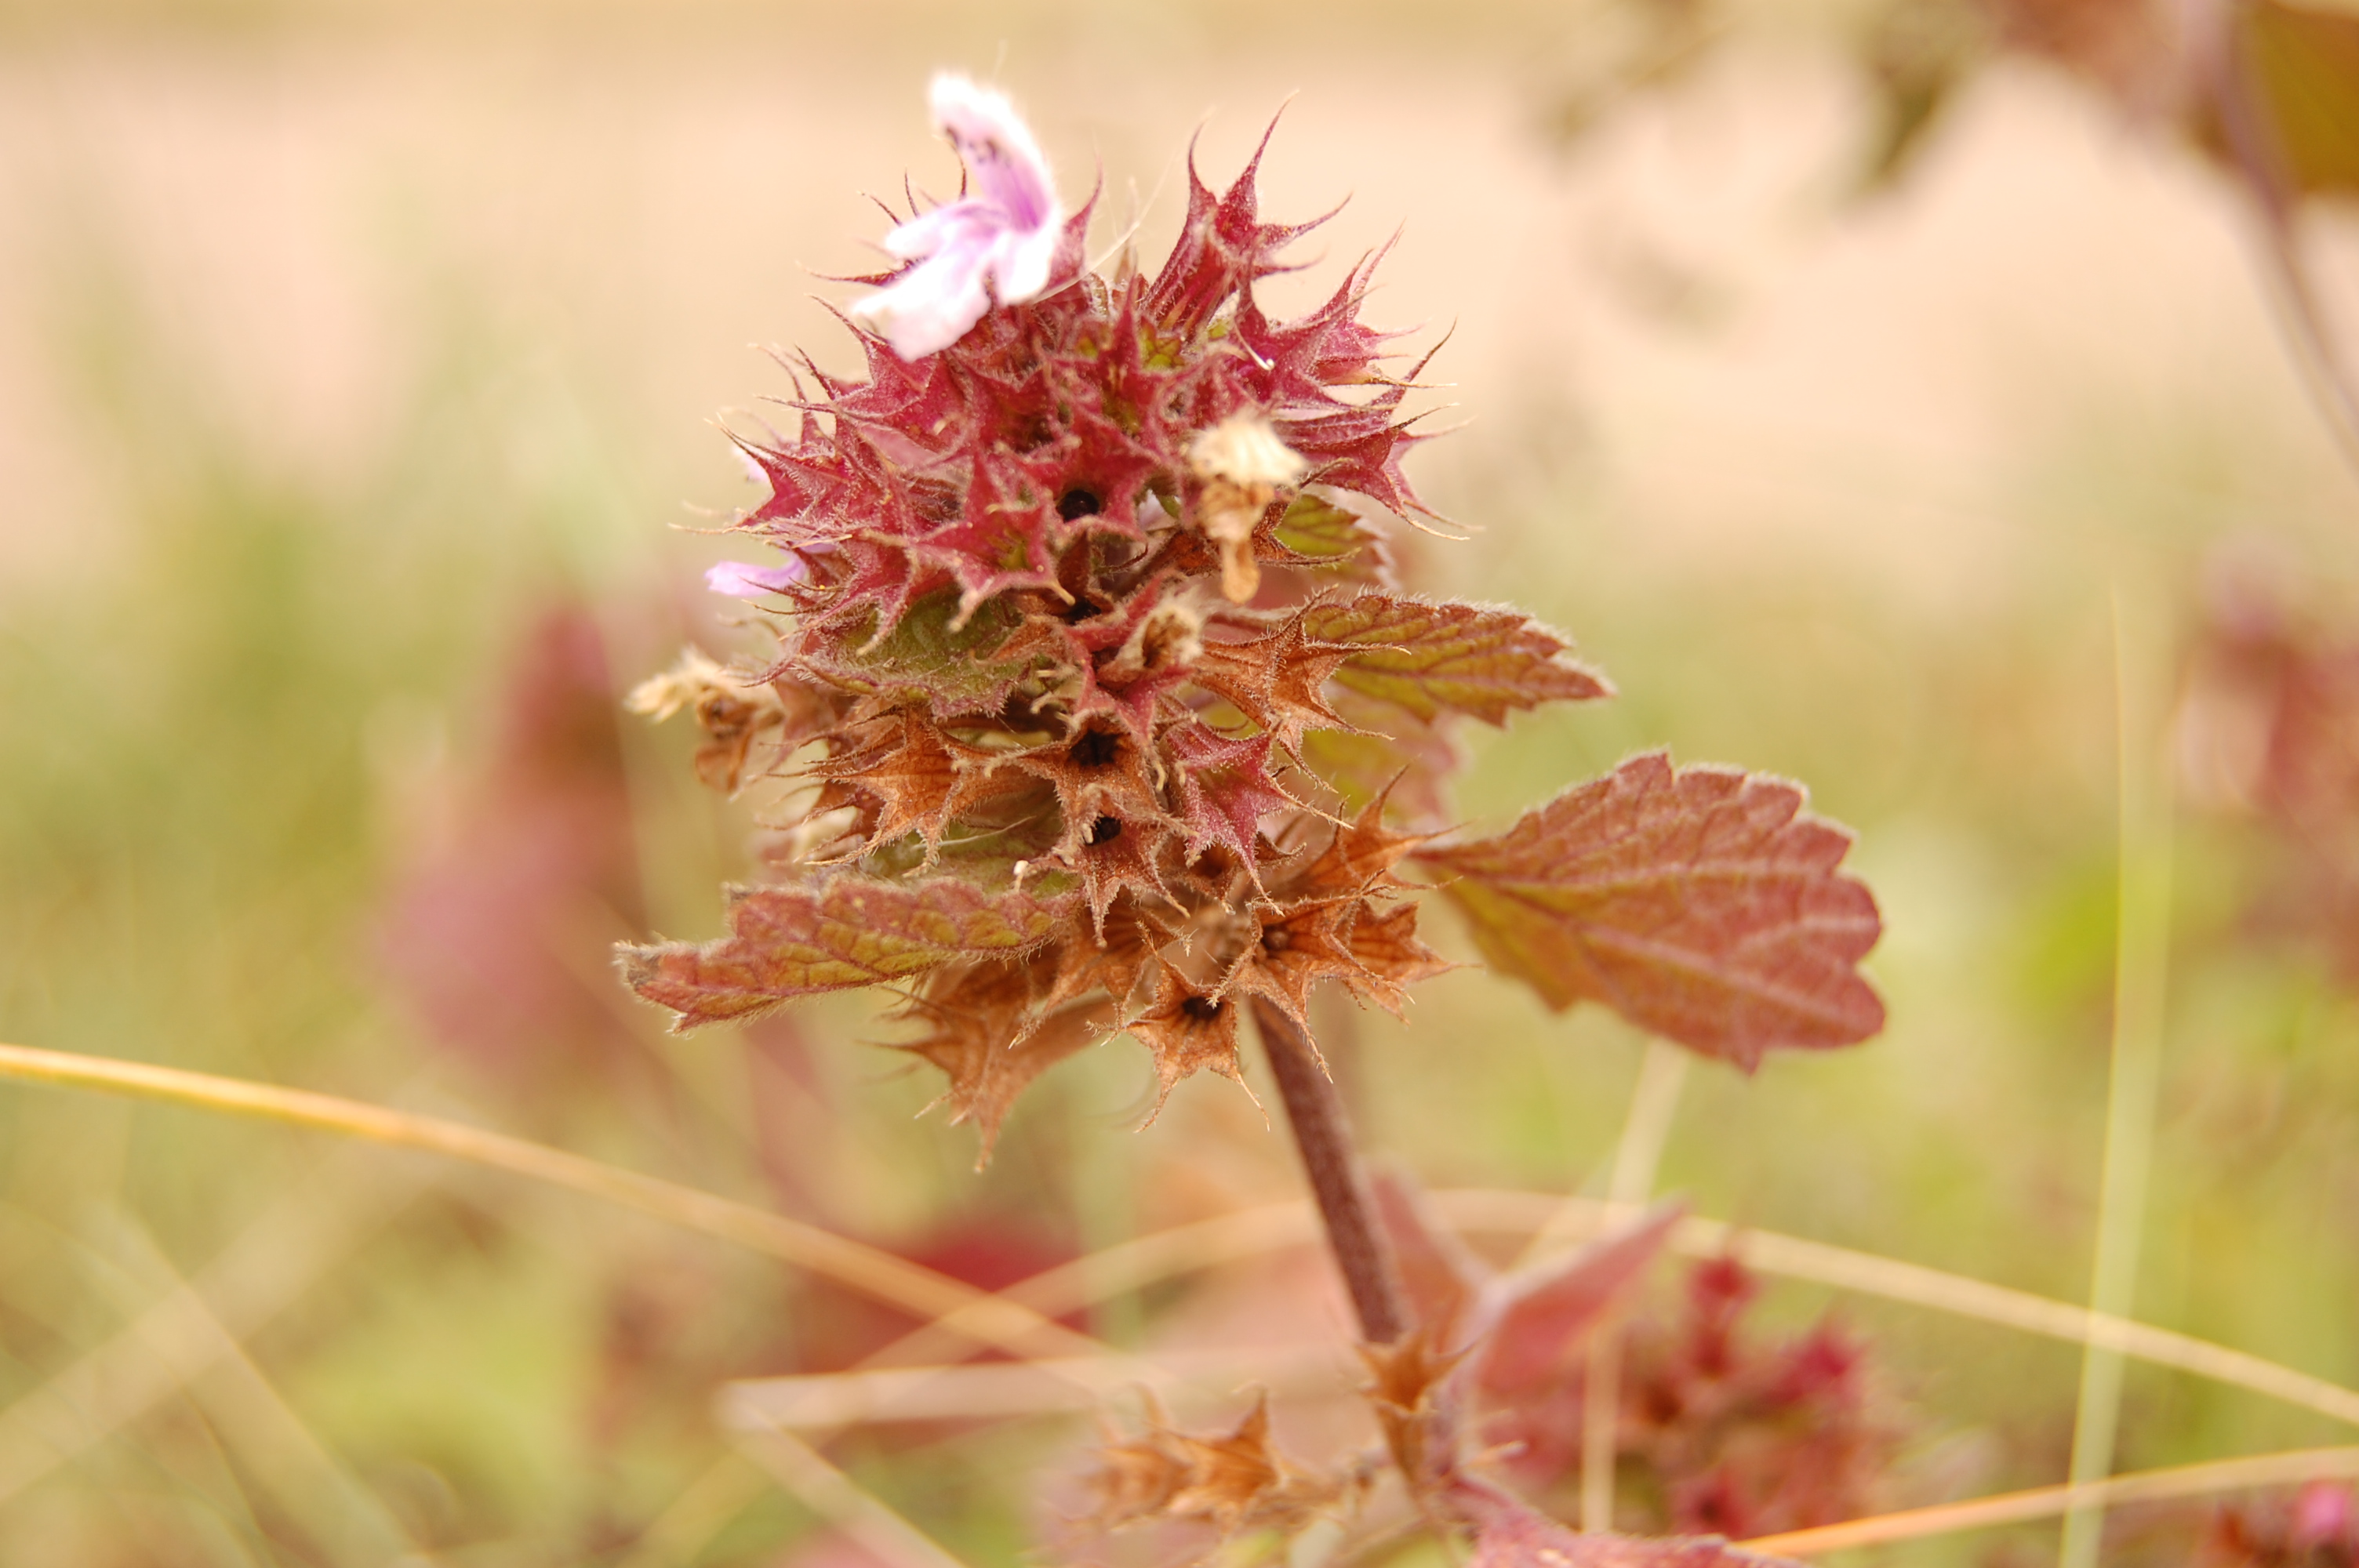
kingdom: Plantae
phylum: Tracheophyta
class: Magnoliopsida
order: Lamiales
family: Lamiaceae
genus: Ballota
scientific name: Ballota nigra
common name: Black horehound
